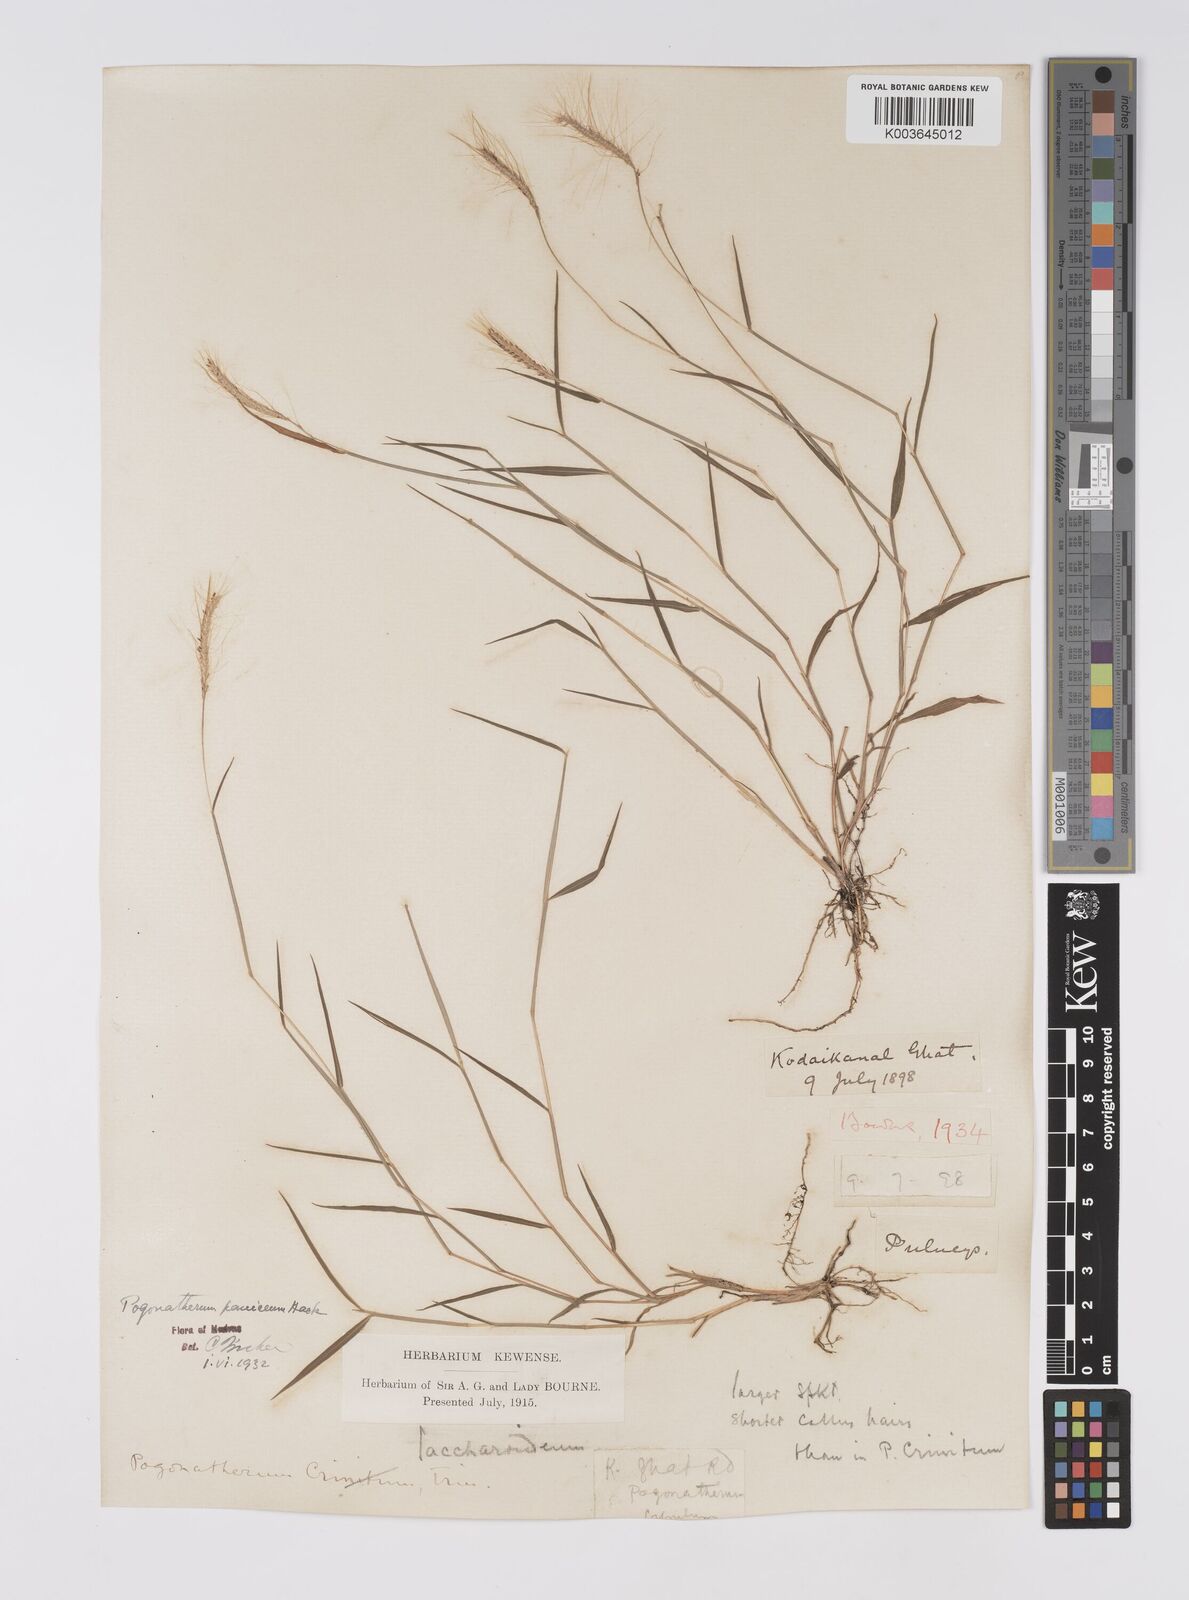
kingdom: Plantae
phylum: Tracheophyta
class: Liliopsida
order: Poales
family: Poaceae
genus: Pogonatherum
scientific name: Pogonatherum crinitum
